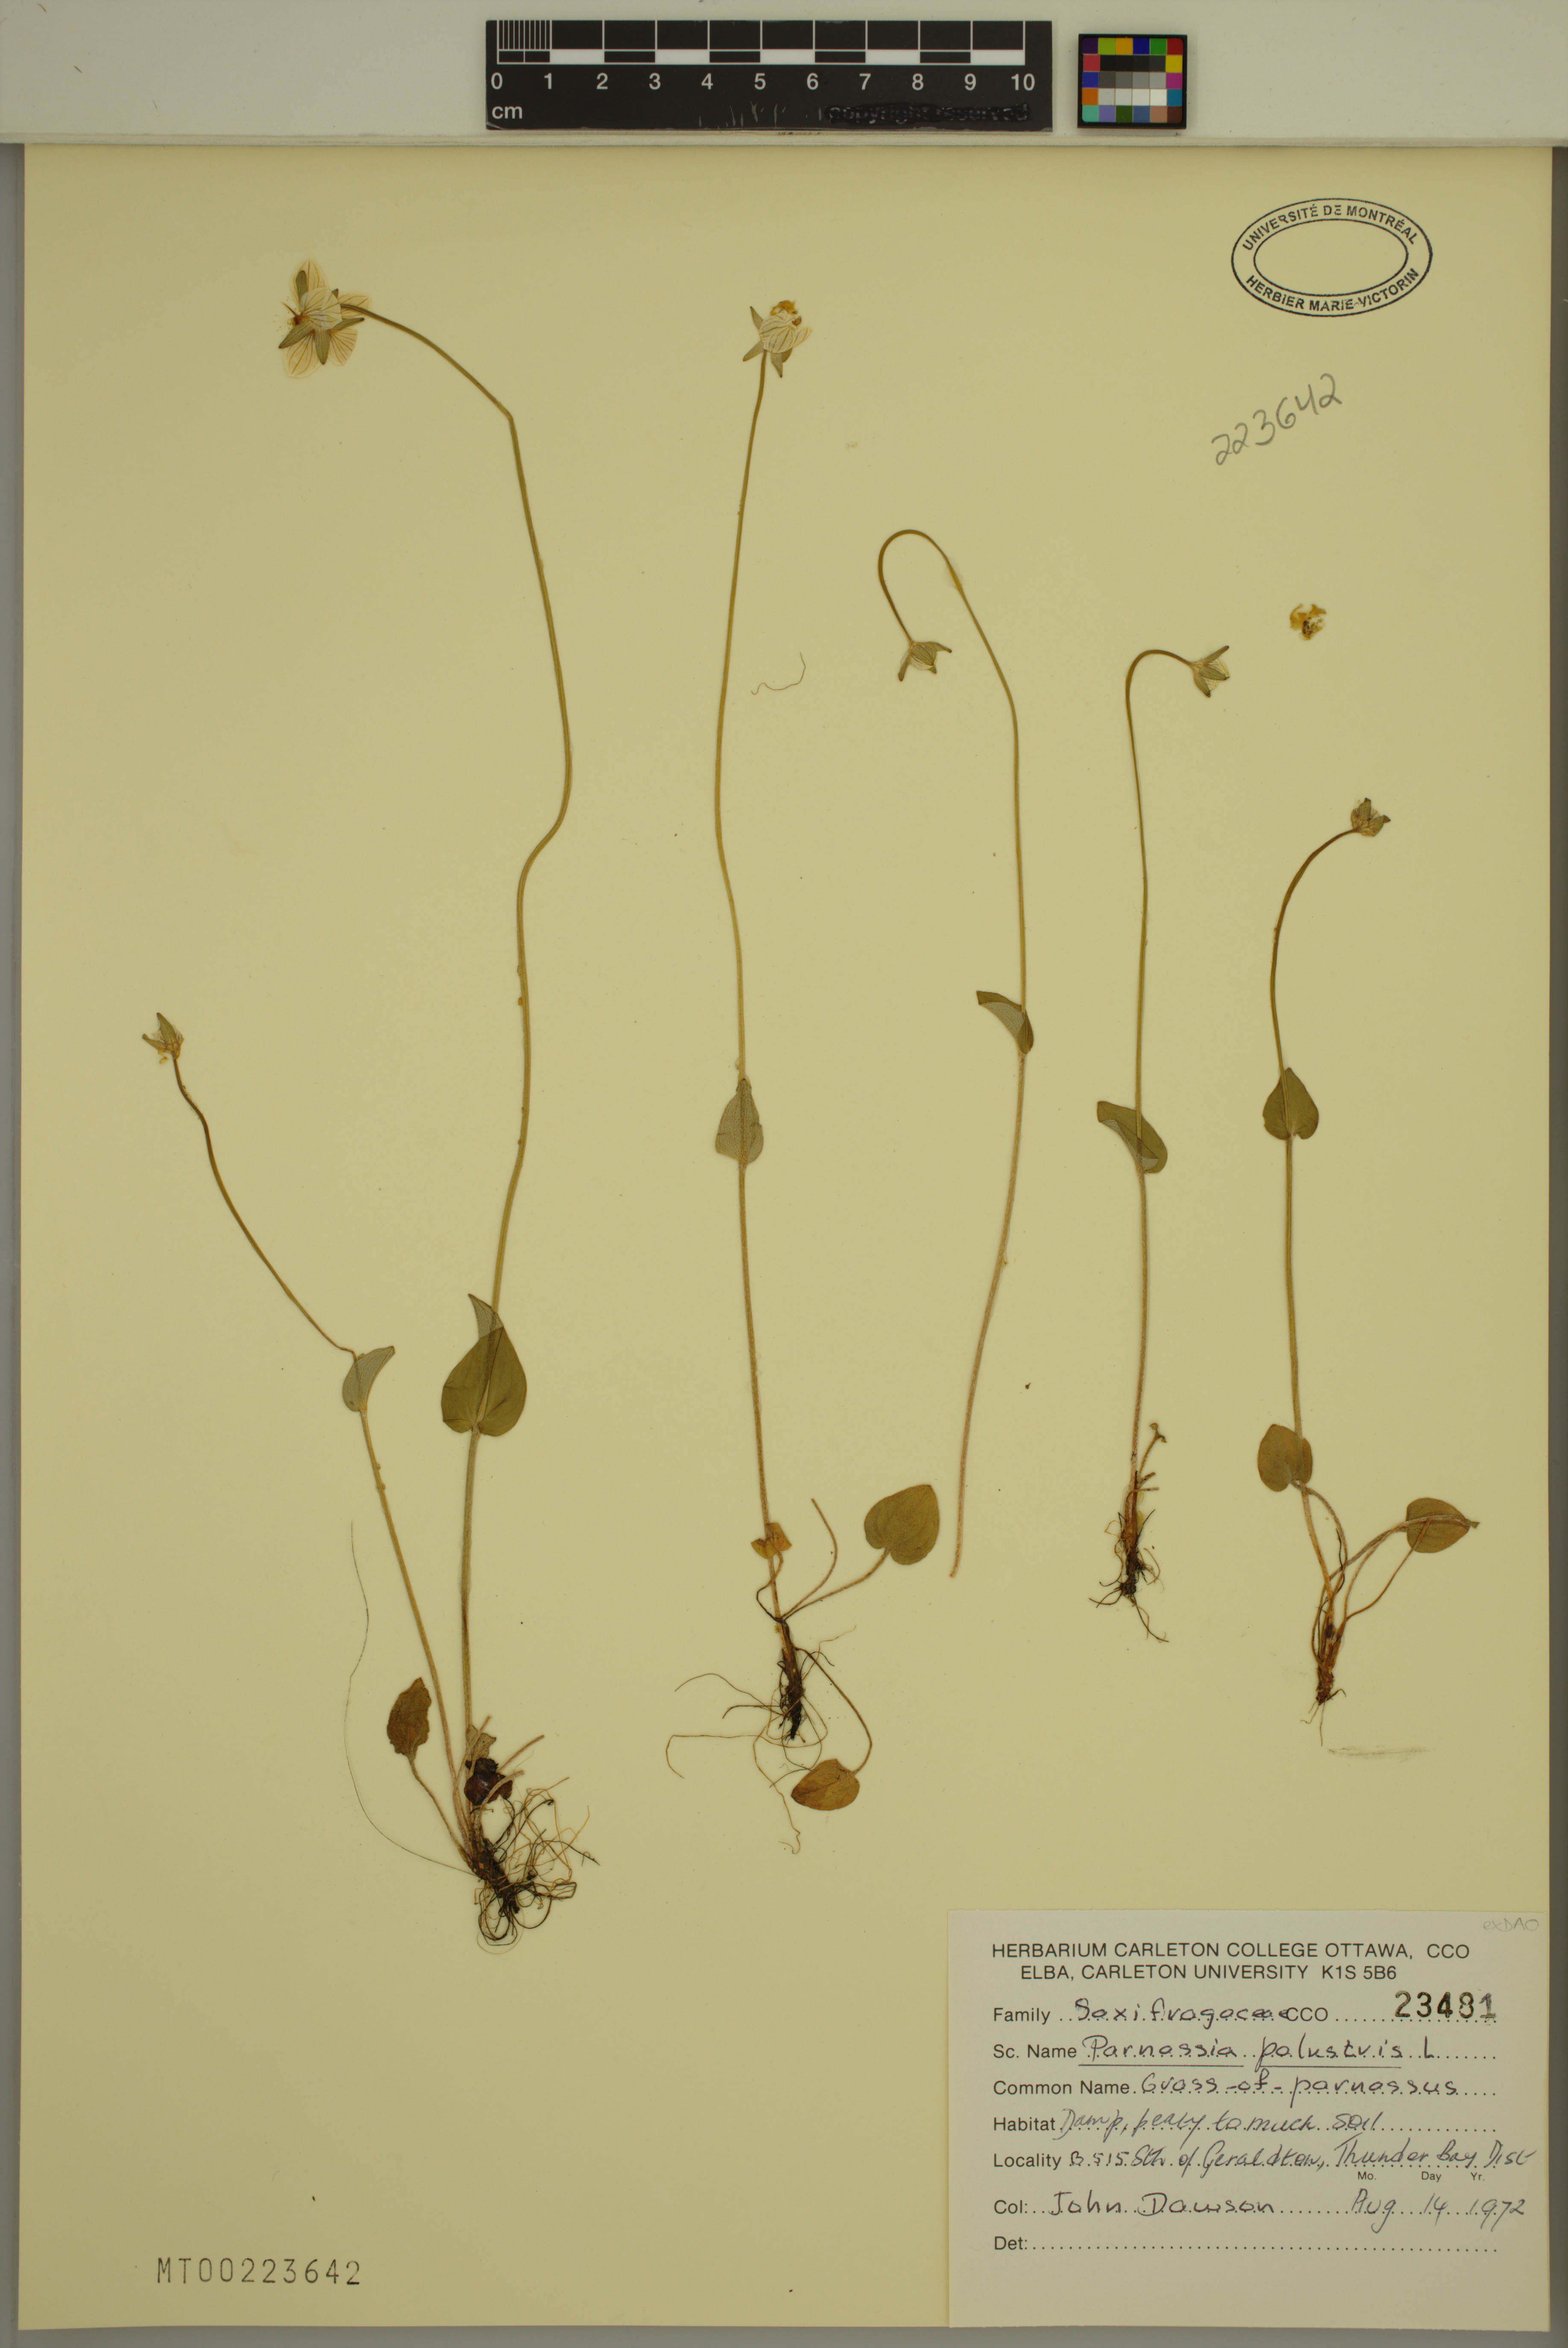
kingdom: Plantae
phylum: Tracheophyta
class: Magnoliopsida
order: Celastrales
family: Parnassiaceae
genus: Parnassia
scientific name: Parnassia palustris
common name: Grass-of-parnassus
